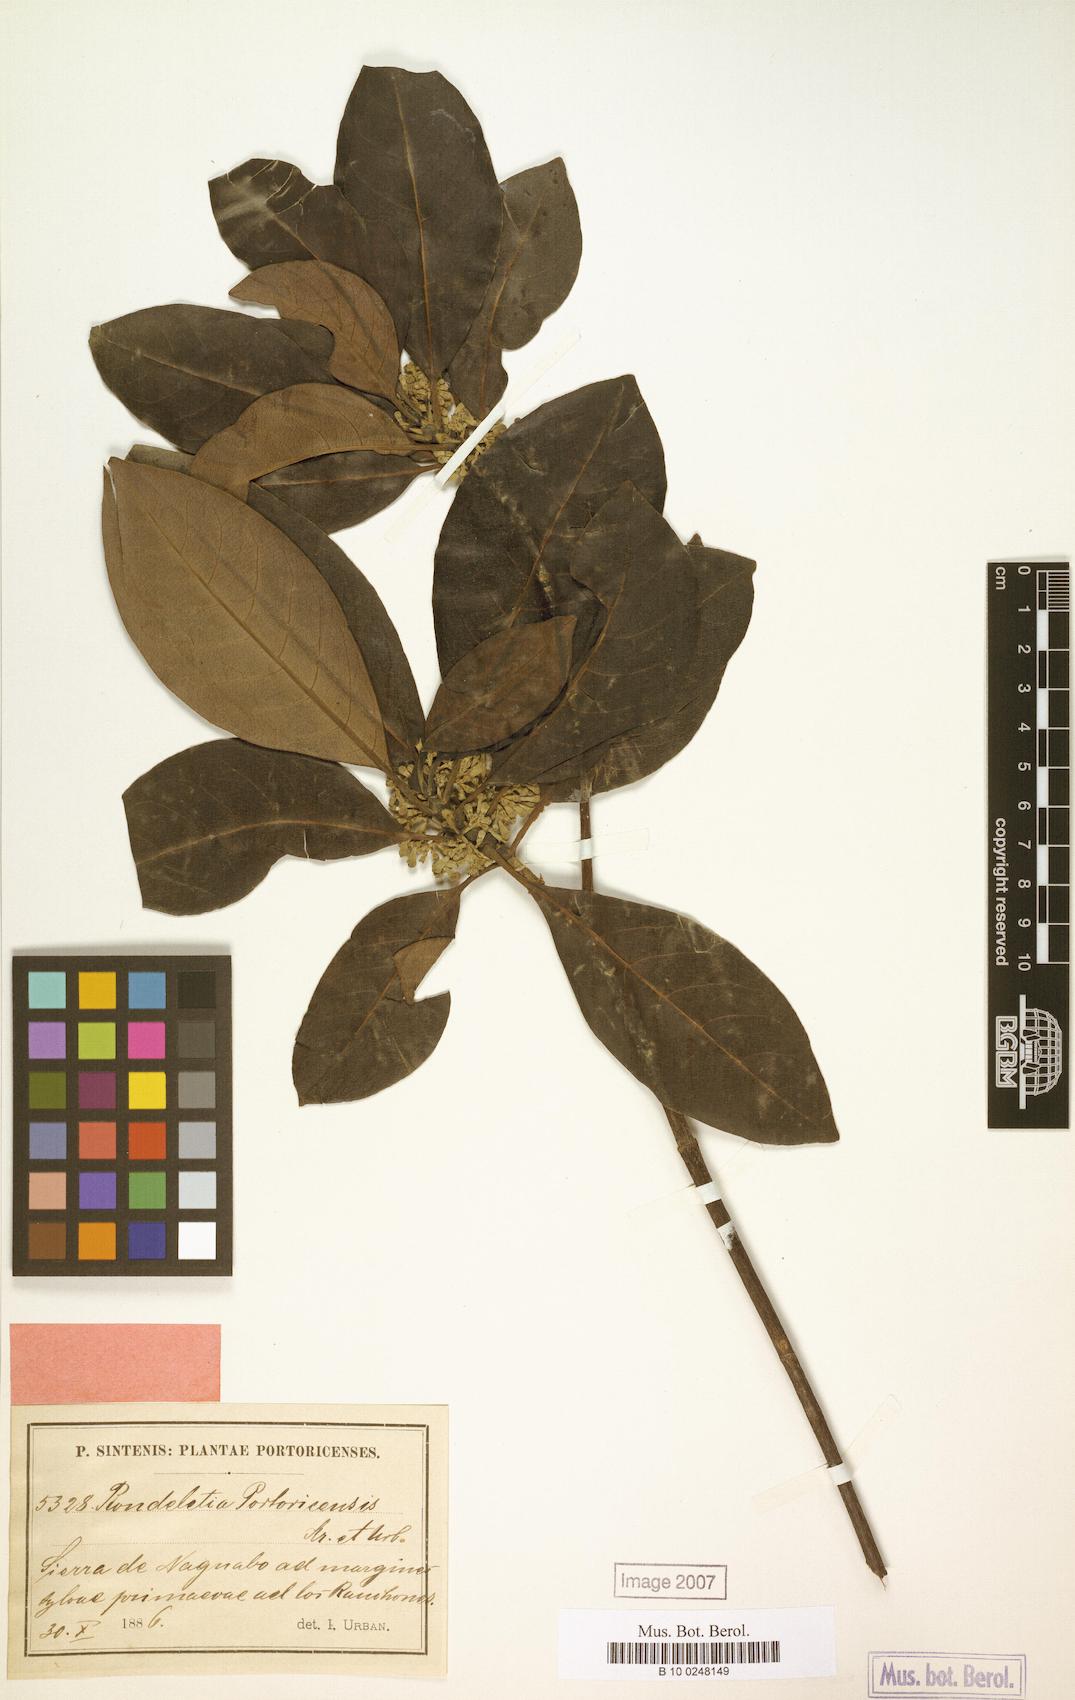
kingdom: Plantae
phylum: Tracheophyta
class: Magnoliopsida
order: Gentianales
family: Rubiaceae
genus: Rondeletia
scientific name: Rondeletia portoricensis
